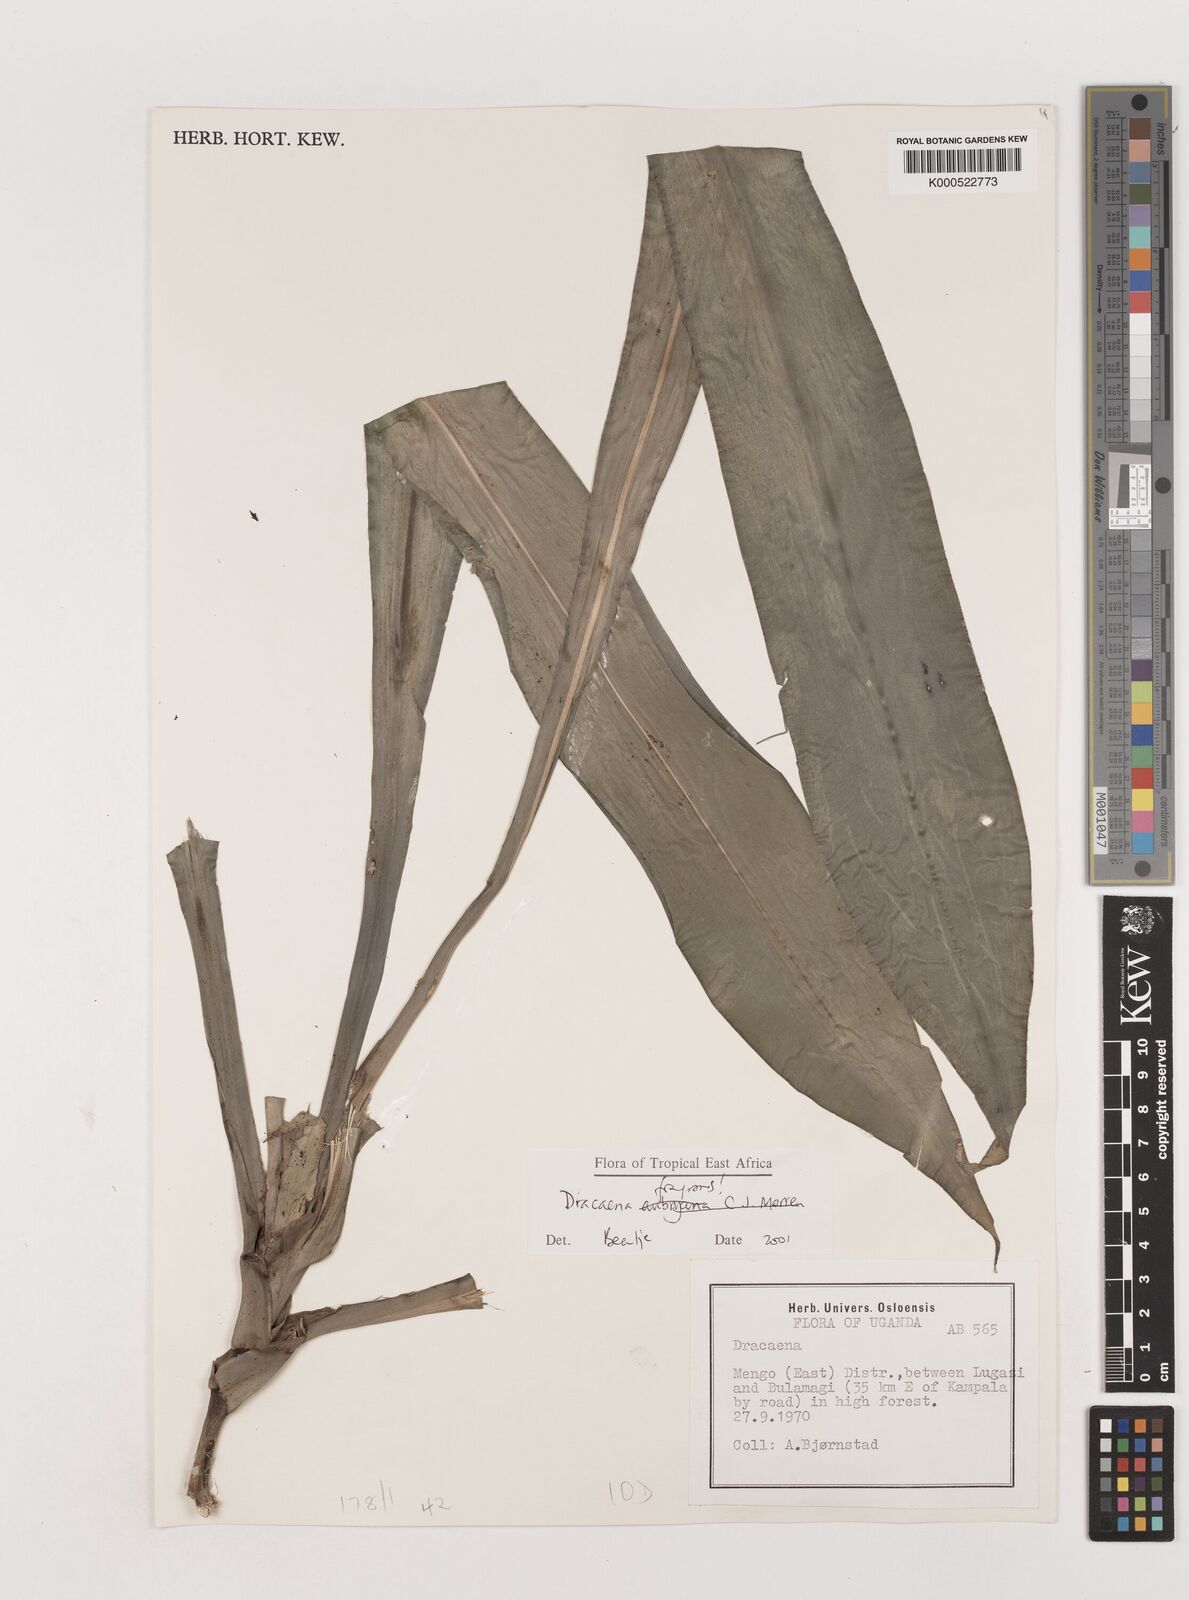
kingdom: Plantae
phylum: Tracheophyta
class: Liliopsida
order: Asparagales
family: Asparagaceae
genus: Dracaena
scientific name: Dracaena fragrans
